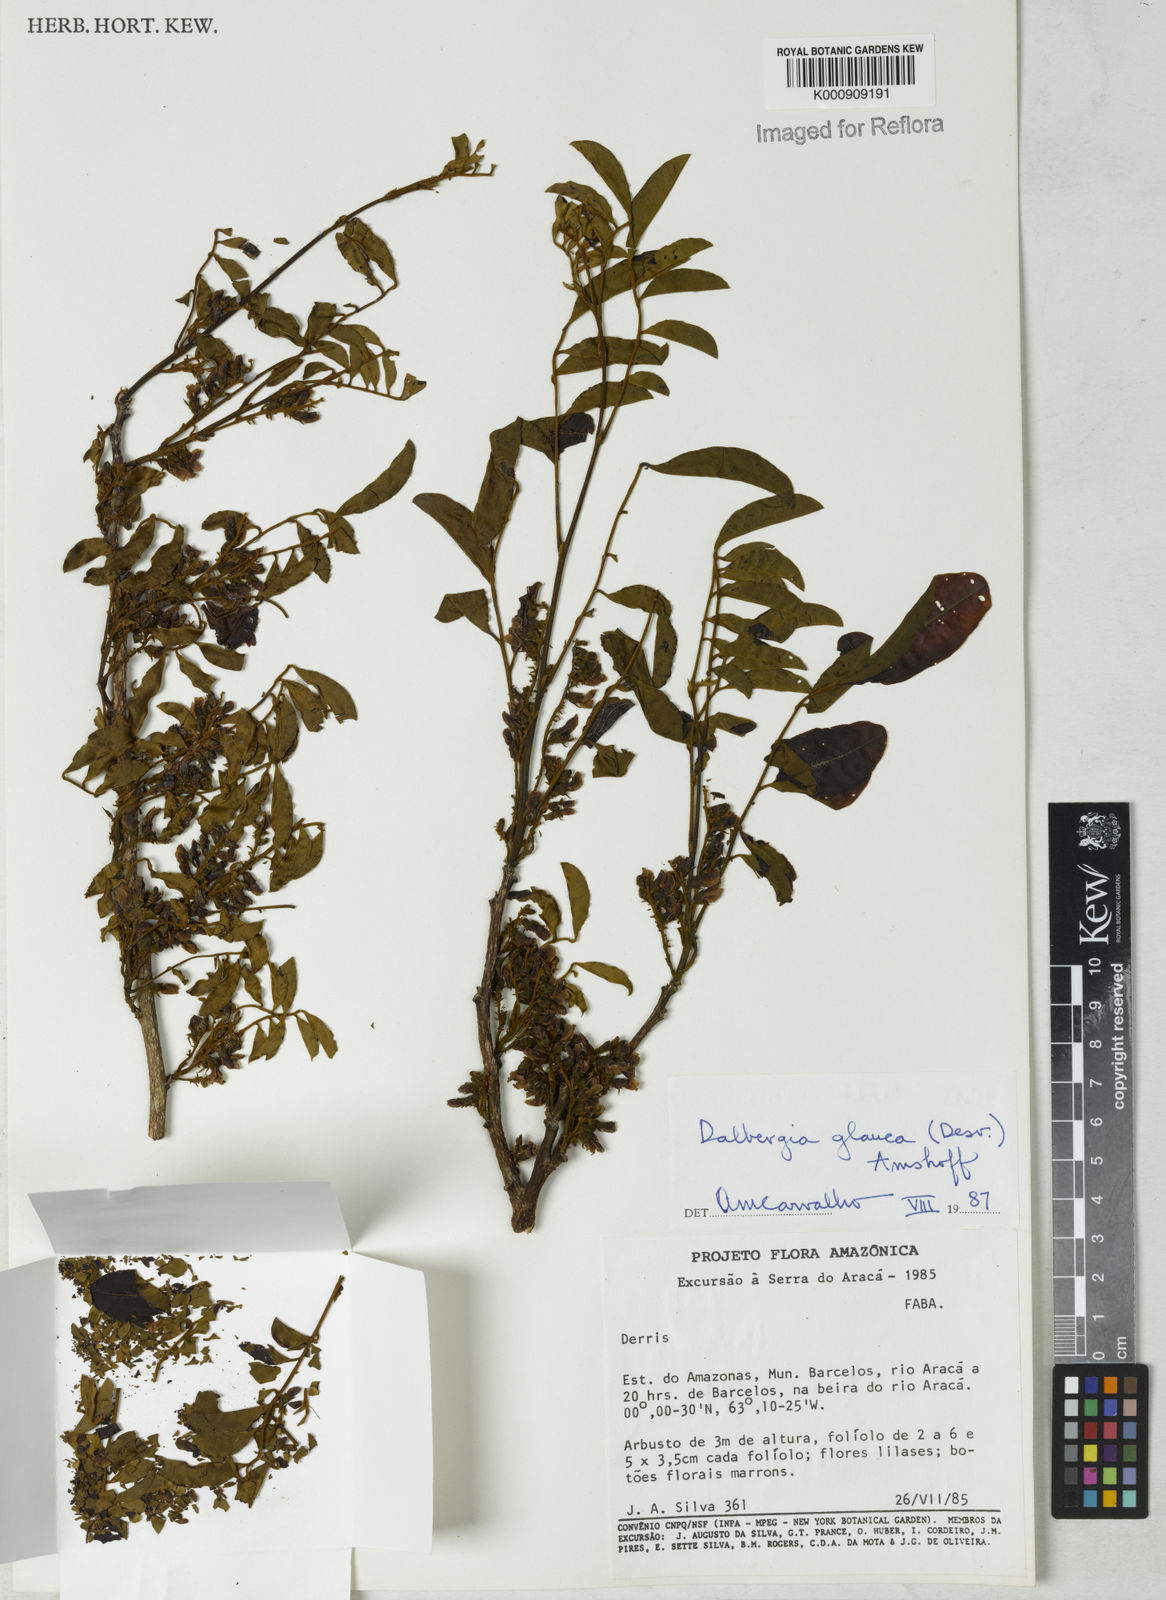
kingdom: Plantae
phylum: Tracheophyta
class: Magnoliopsida
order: Fabales
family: Fabaceae
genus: Dalbergia
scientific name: Dalbergia atropurpurea
